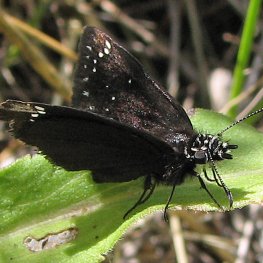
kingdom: Animalia
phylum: Arthropoda
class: Insecta
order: Lepidoptera
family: Hesperiidae
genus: Pholisora
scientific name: Pholisora catullus
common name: Common Sootywing
